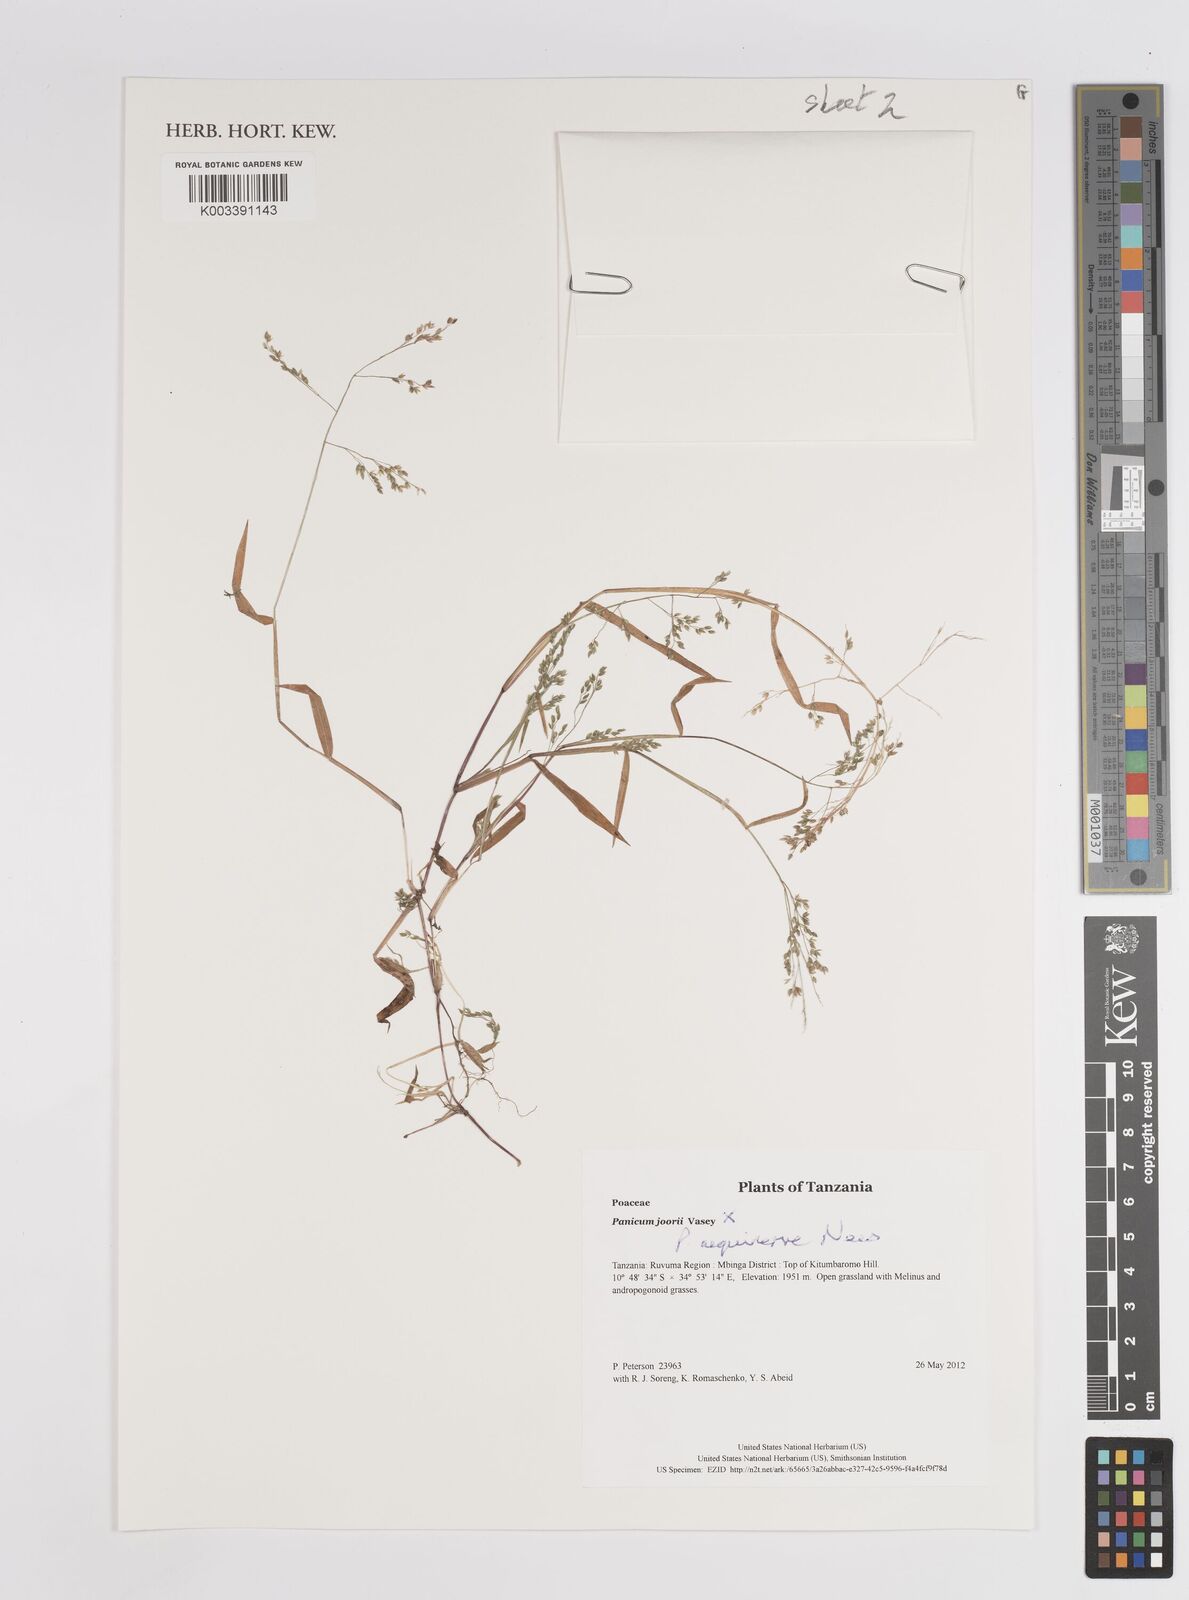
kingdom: Plantae
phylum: Tracheophyta
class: Liliopsida
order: Poales
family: Poaceae
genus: Panicum
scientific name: Panicum aequinerve
